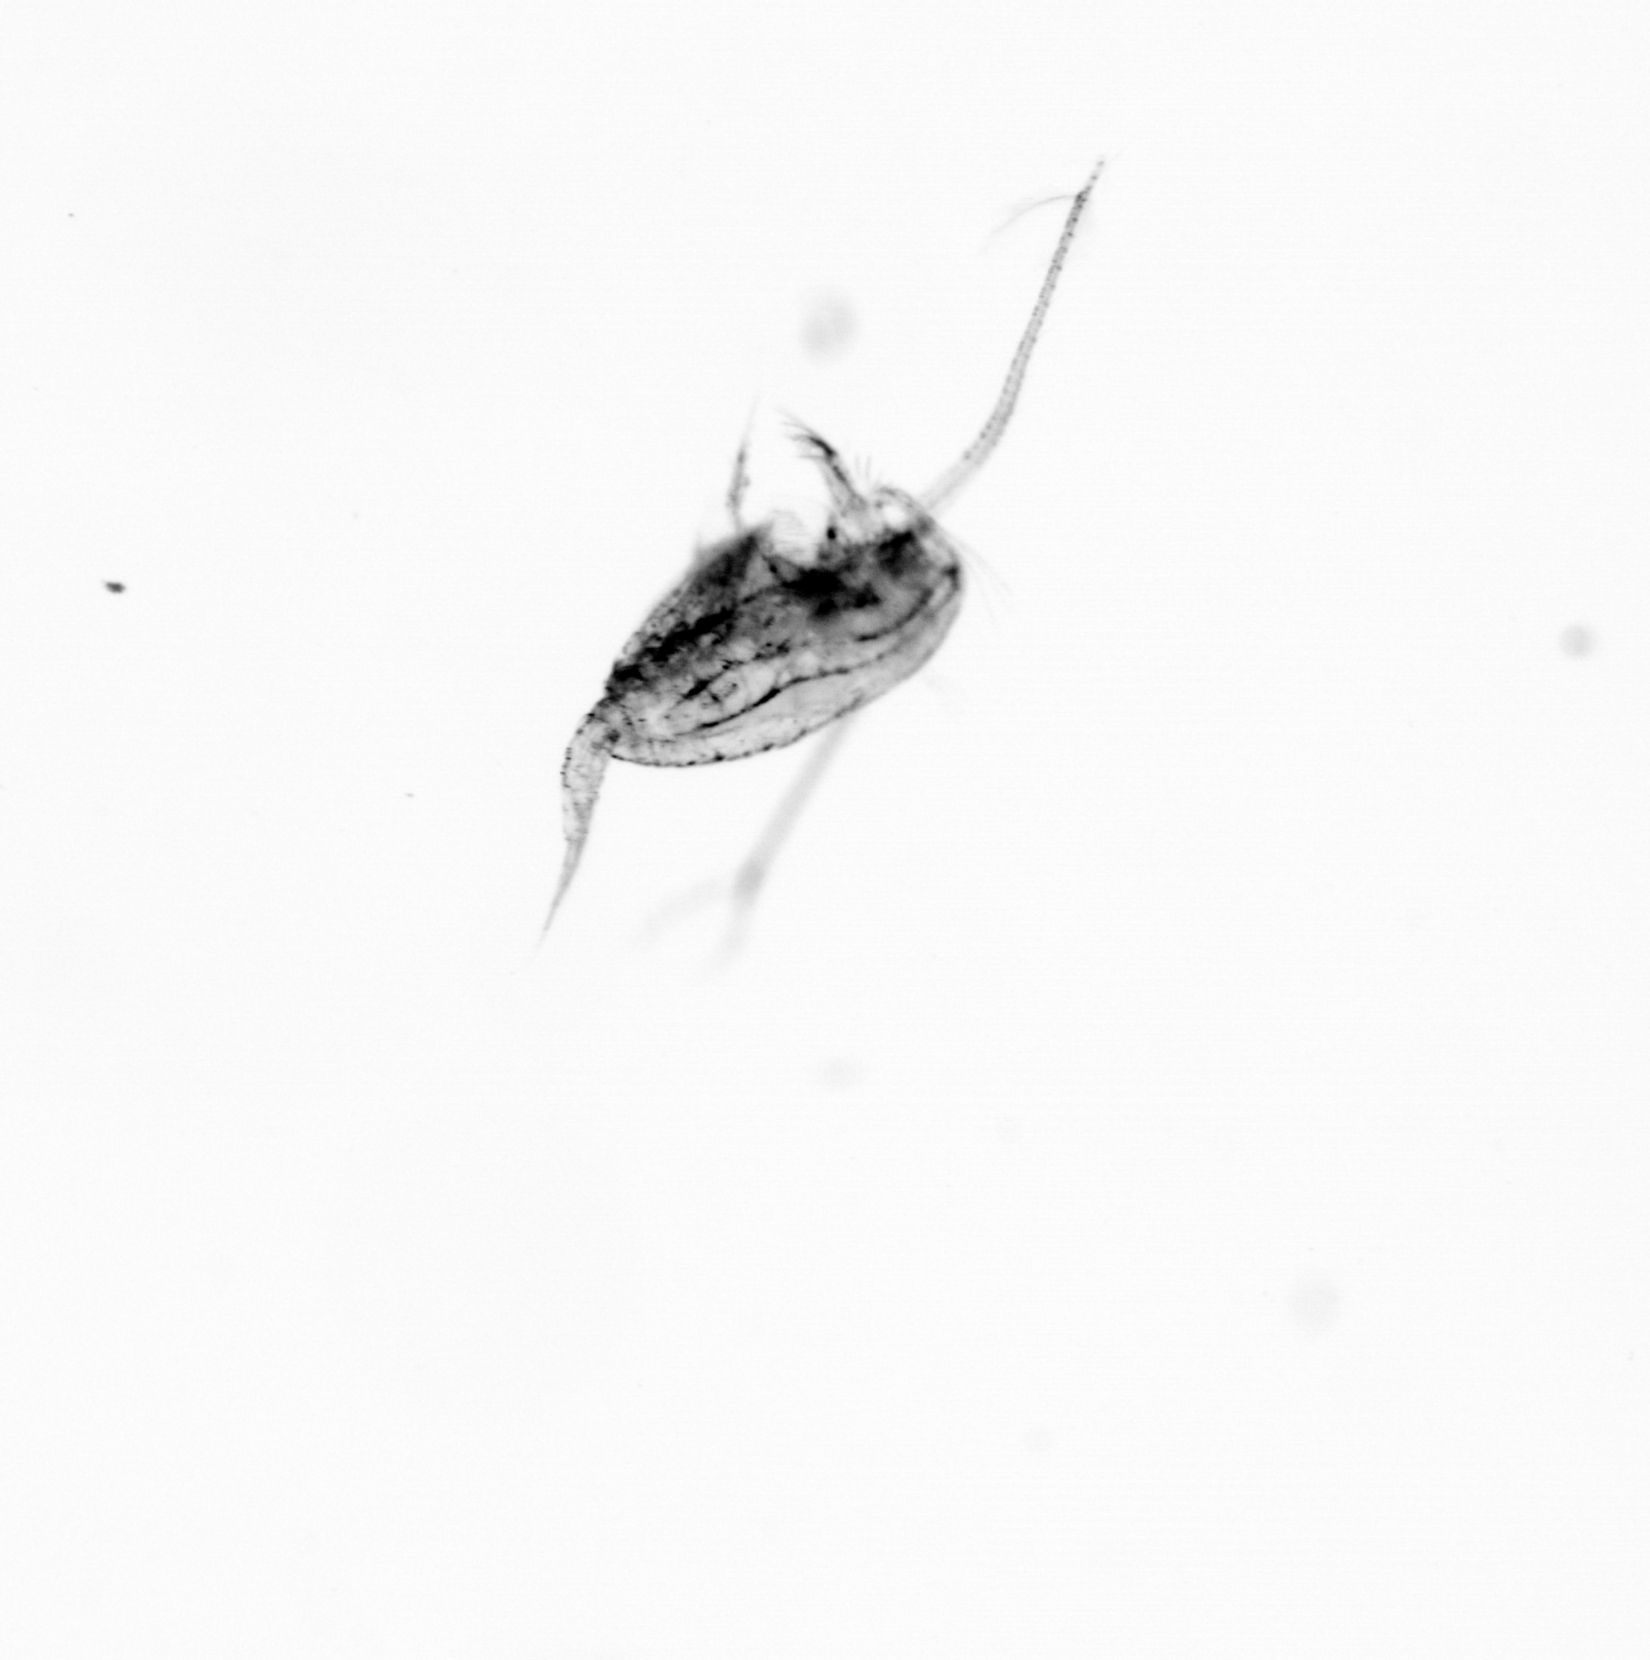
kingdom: Animalia
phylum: Arthropoda
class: Copepoda
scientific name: Copepoda
